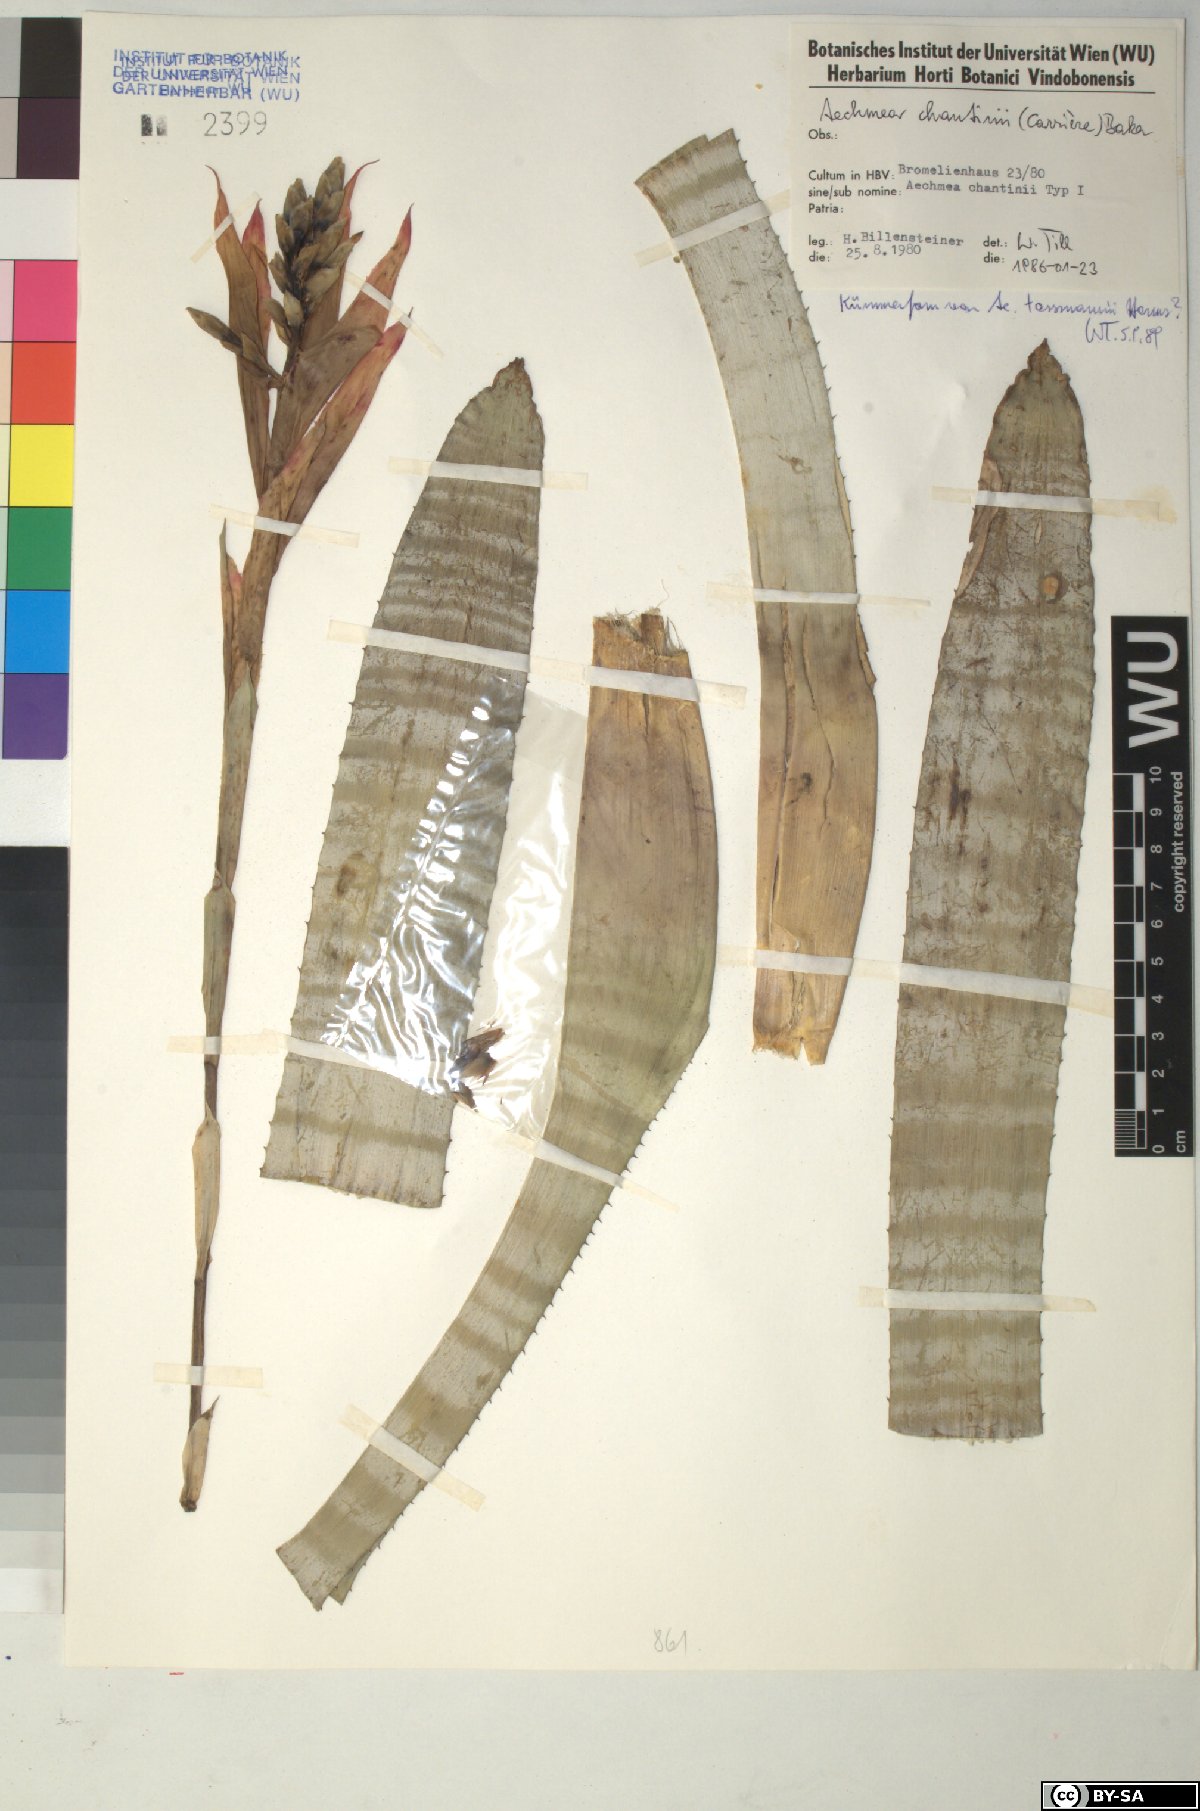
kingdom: Plantae
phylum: Tracheophyta
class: Liliopsida
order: Poales
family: Bromeliaceae
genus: Aechmea
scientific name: Aechmea
